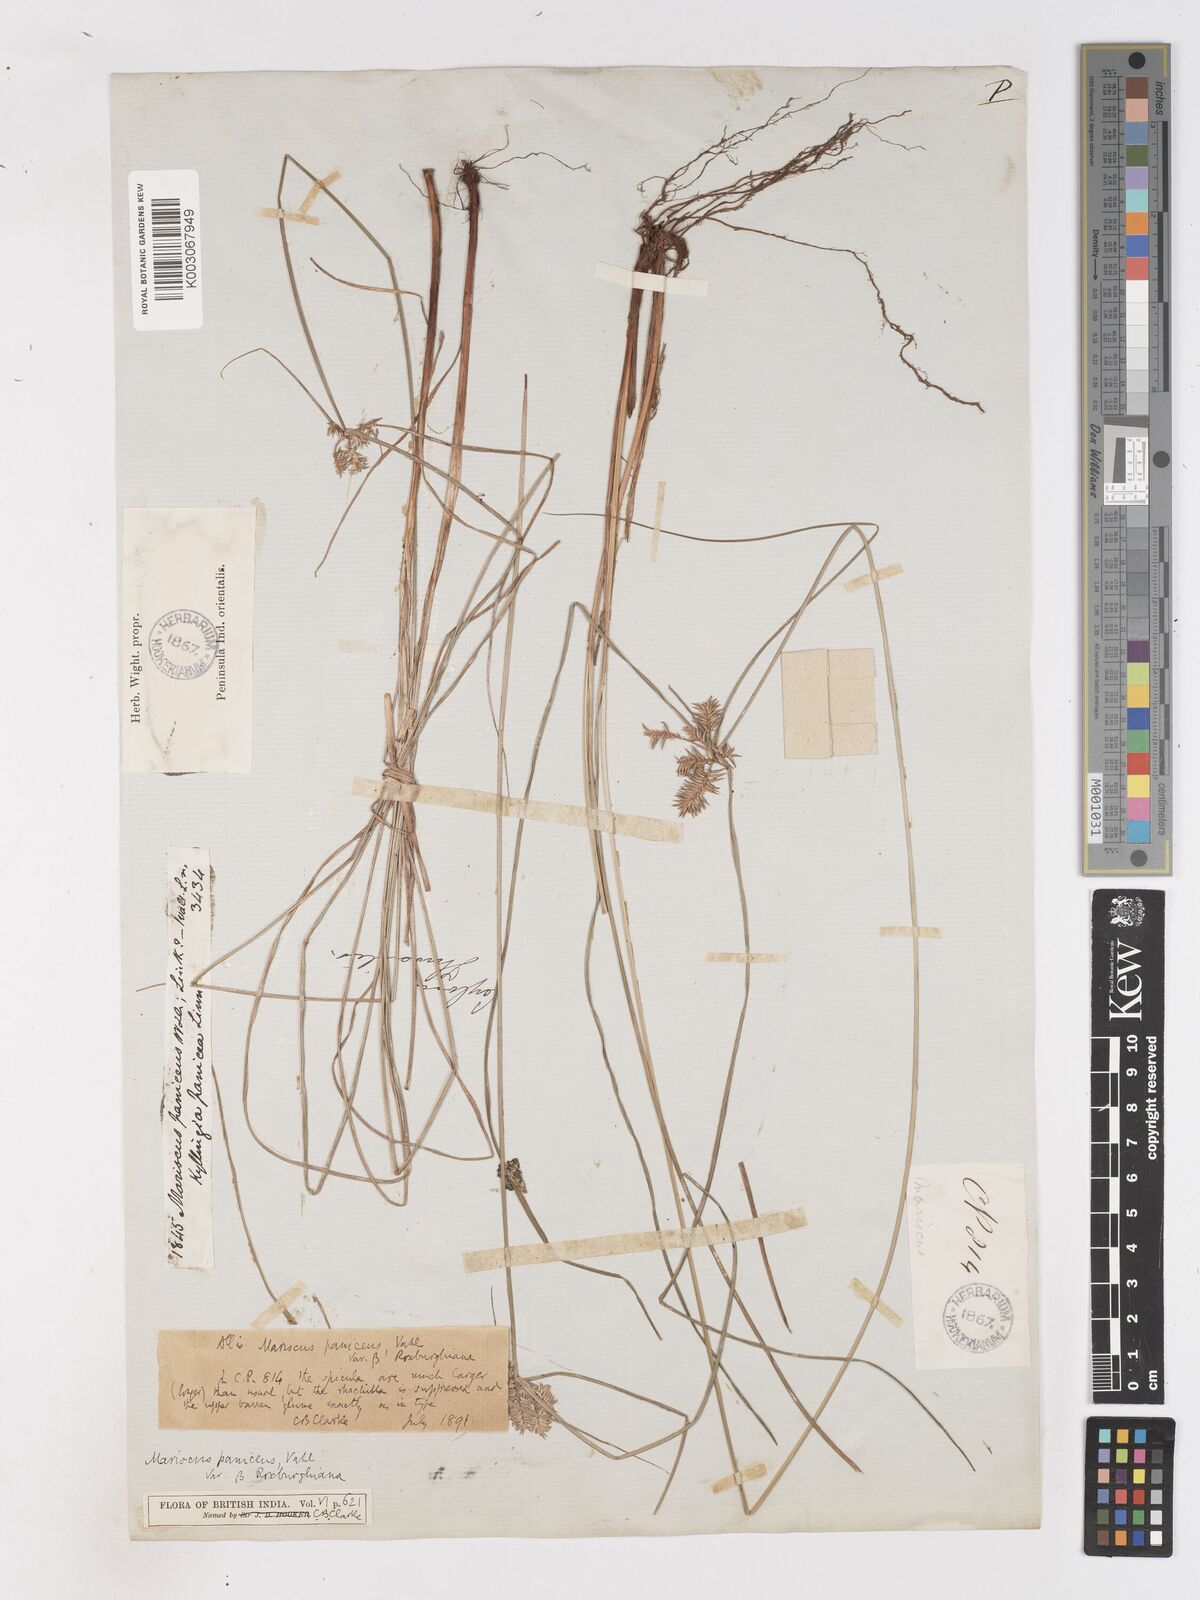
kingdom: Plantae
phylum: Tracheophyta
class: Liliopsida
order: Poales
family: Cyperaceae
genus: Cyperus
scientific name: Cyperus paniceus
